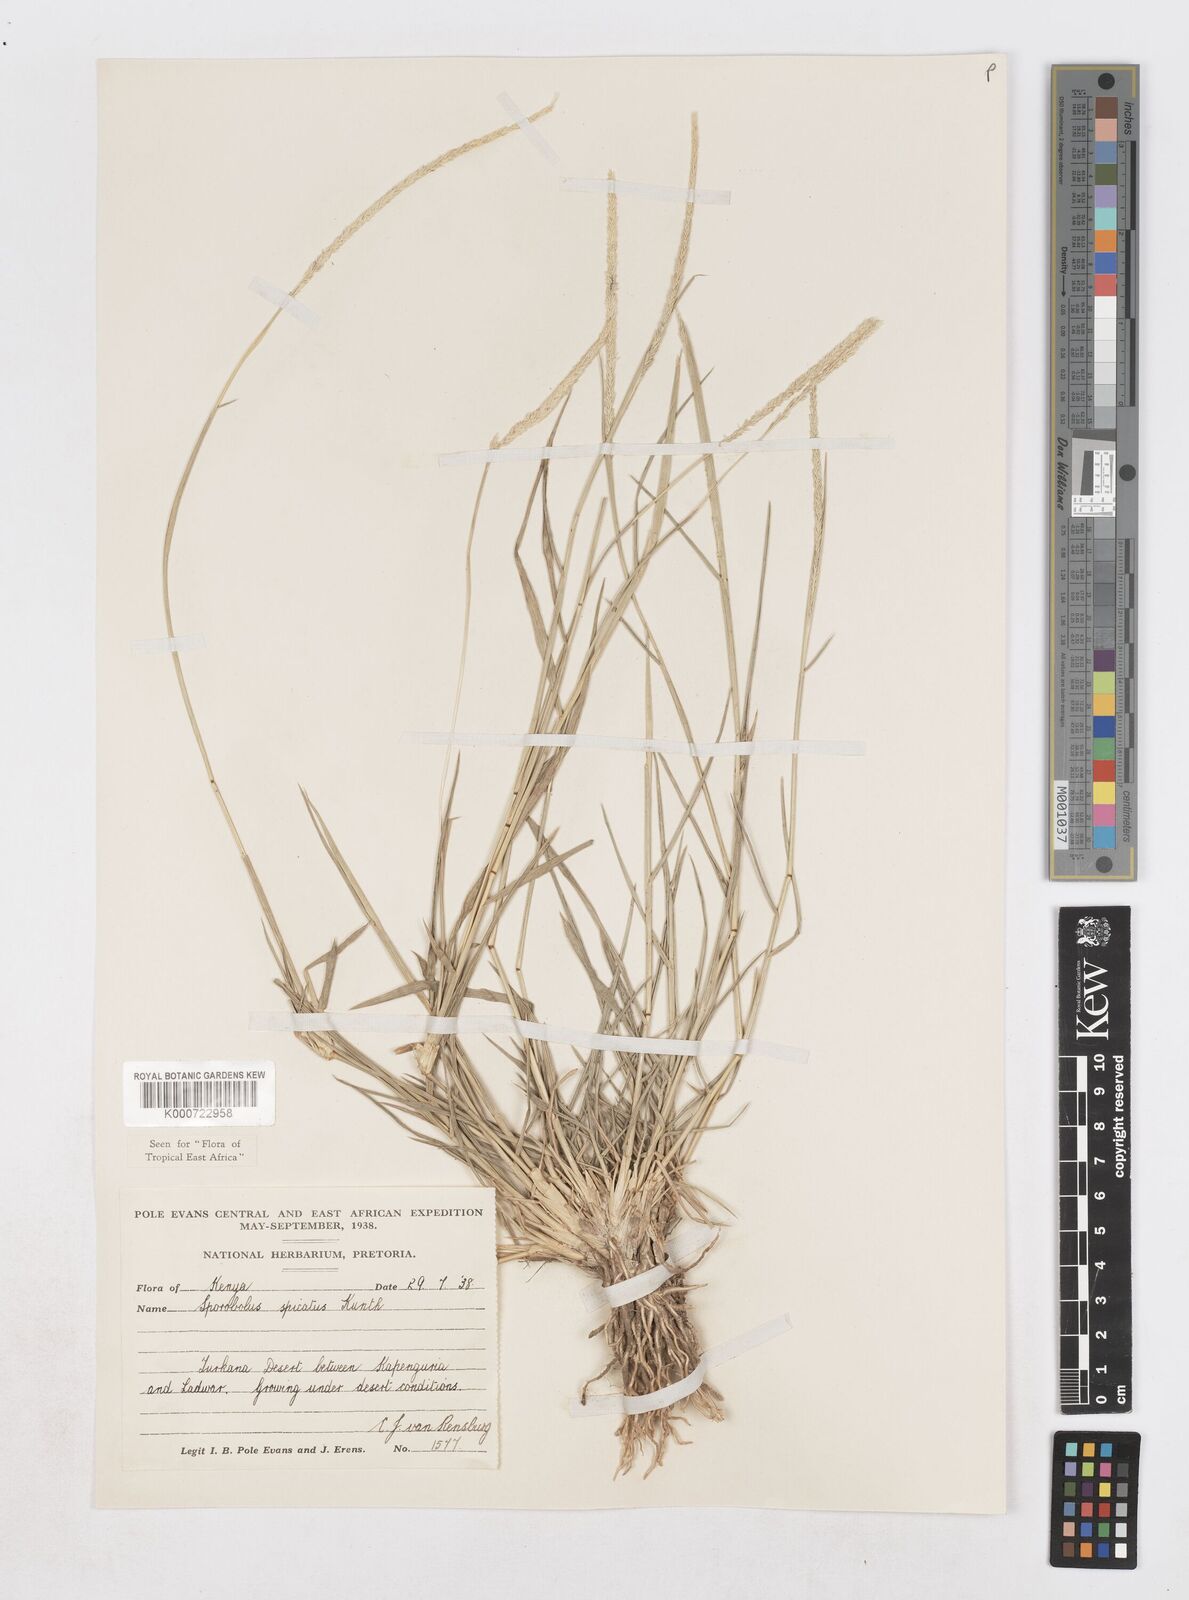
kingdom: Plantae
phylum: Tracheophyta
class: Liliopsida
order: Poales
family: Poaceae
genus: Sporobolus
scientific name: Sporobolus spicatus
